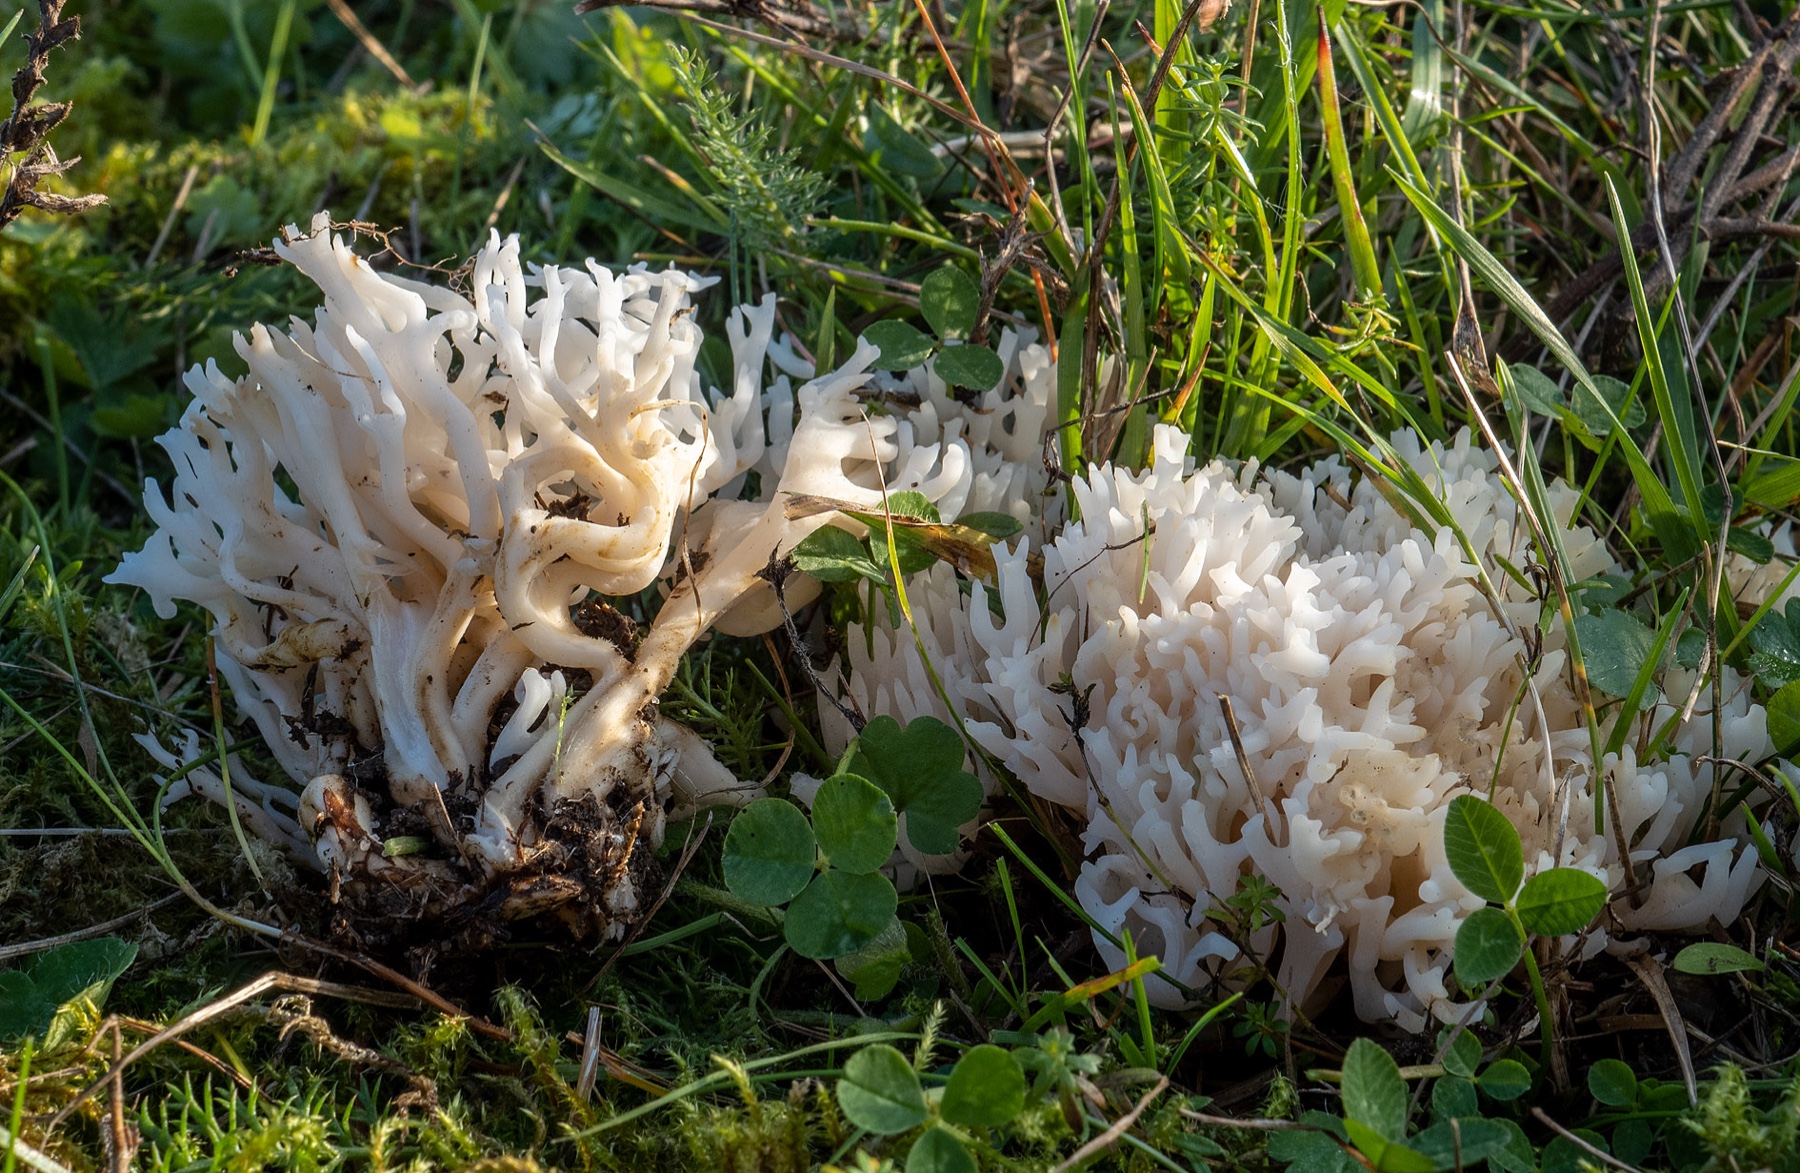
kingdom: Fungi
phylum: Basidiomycota
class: Agaricomycetes
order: Agaricales
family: Clavariaceae
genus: Ramariopsis
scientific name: Ramariopsis robusta
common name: tykgrenet køllesvamp
